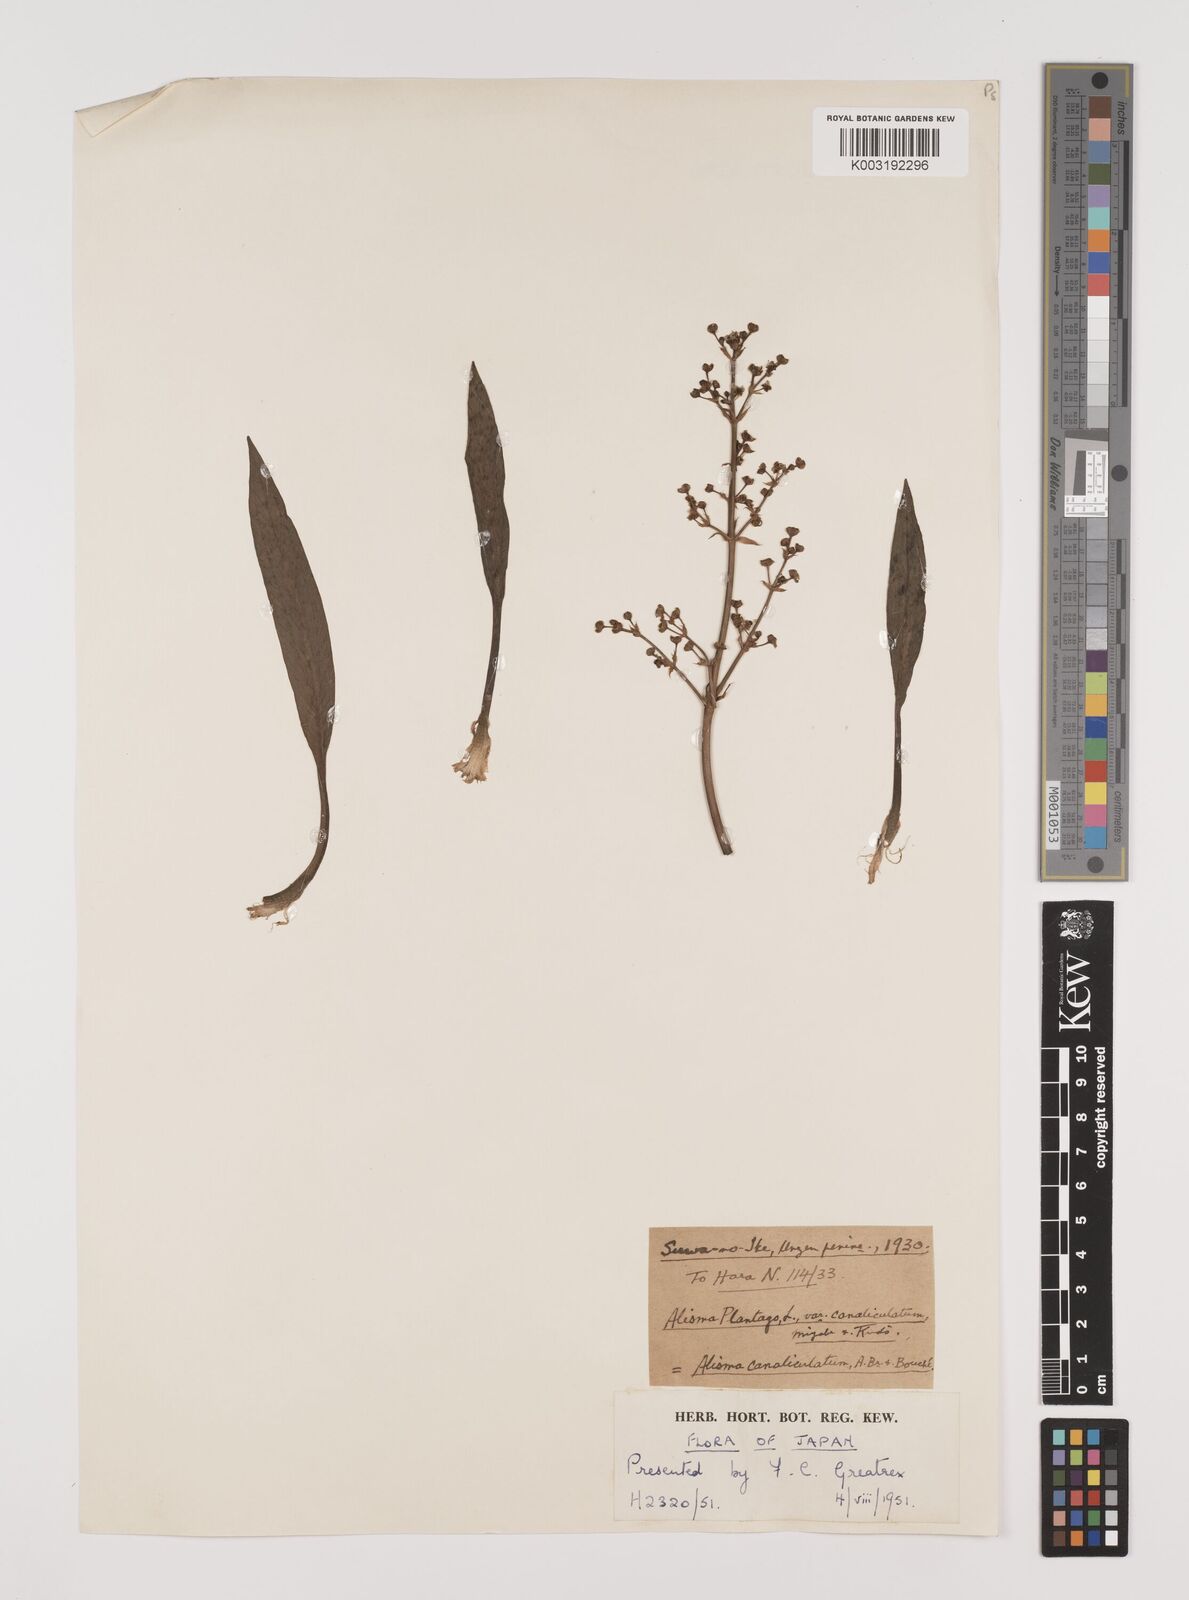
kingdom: Plantae
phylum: Tracheophyta
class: Liliopsida
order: Alismatales
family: Alismataceae
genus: Alisma
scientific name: Alisma canaliculatum
